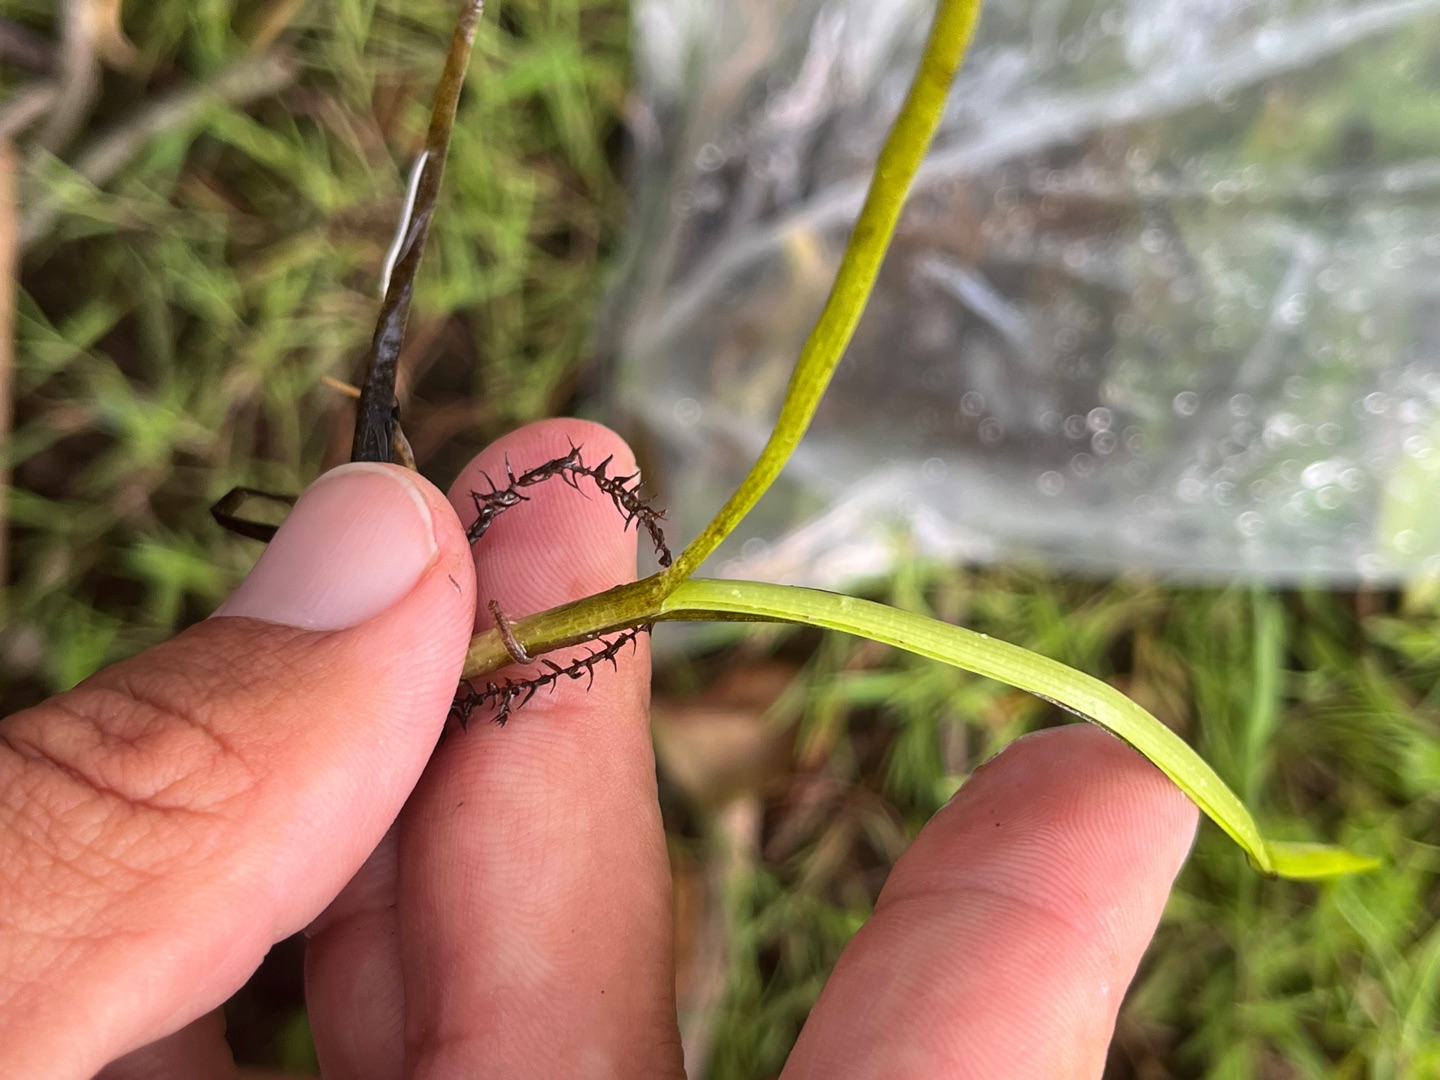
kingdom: Plantae
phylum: Tracheophyta
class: Liliopsida
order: Poales
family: Typhaceae
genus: Sparganium
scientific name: Sparganium
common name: Pindsvineknopslægten
